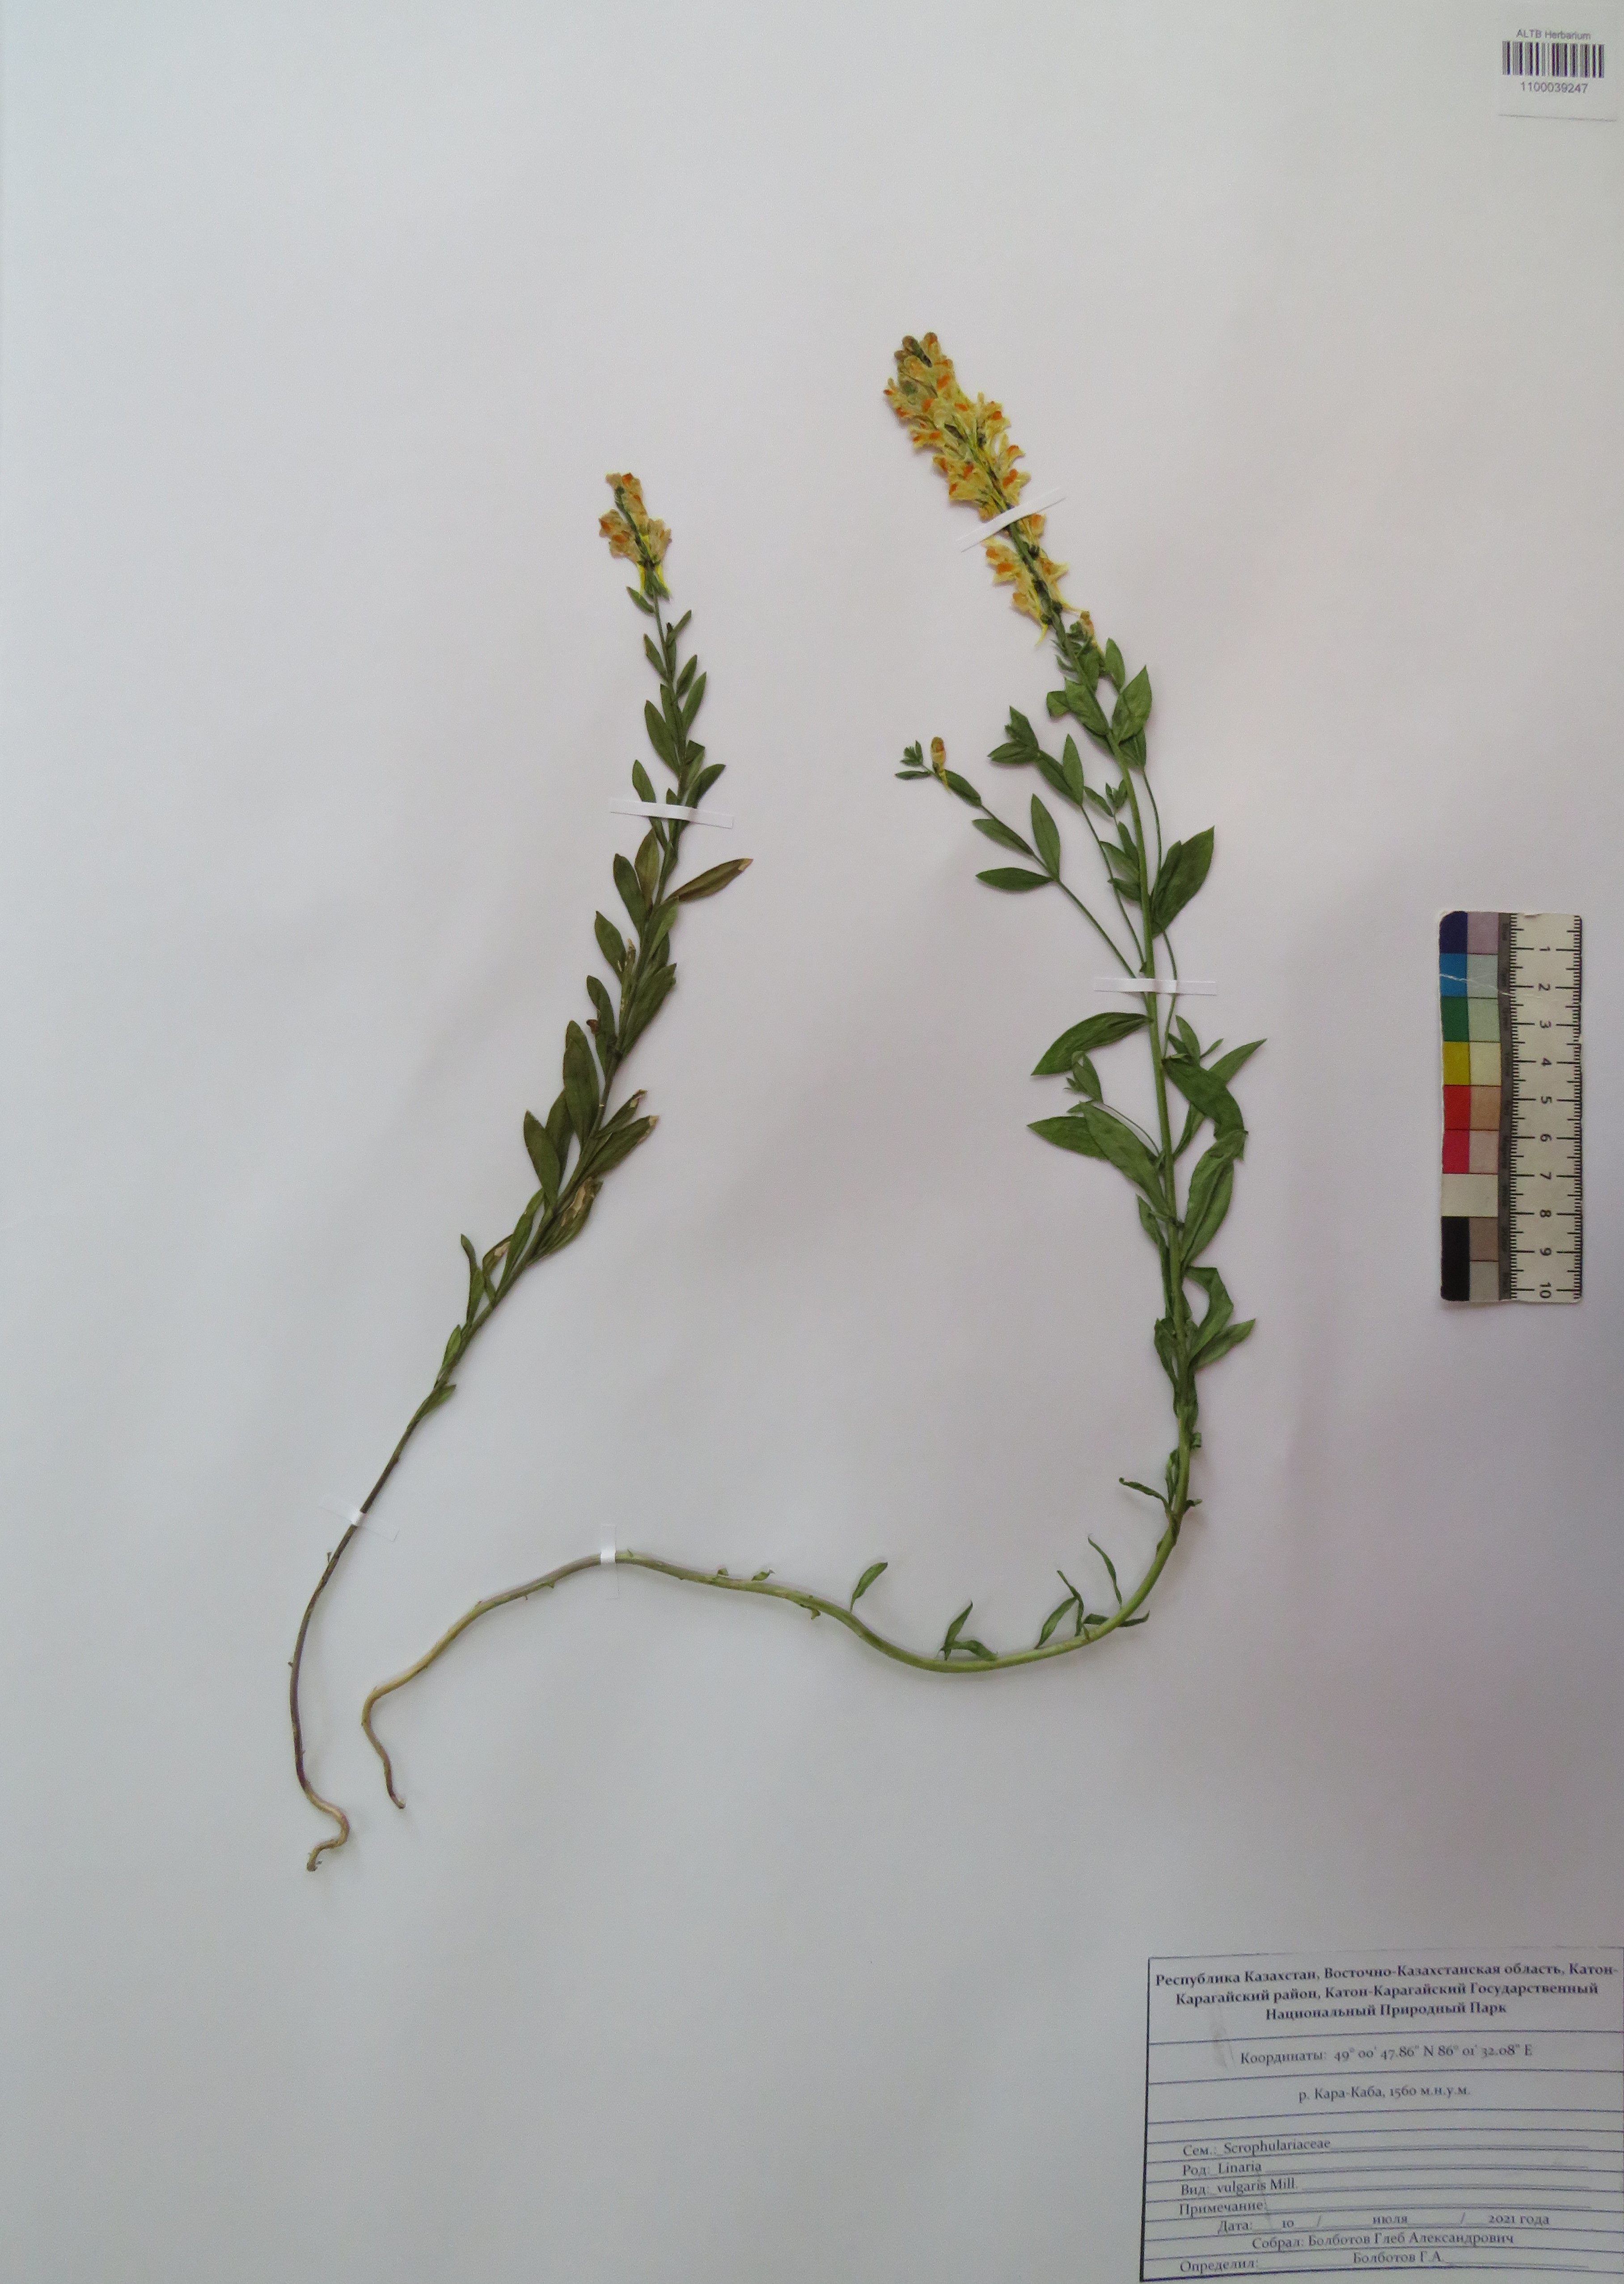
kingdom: Plantae
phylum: Tracheophyta
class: Magnoliopsida
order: Lamiales
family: Plantaginaceae
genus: Linaria
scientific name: Linaria vulgaris
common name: Butter and eggs
